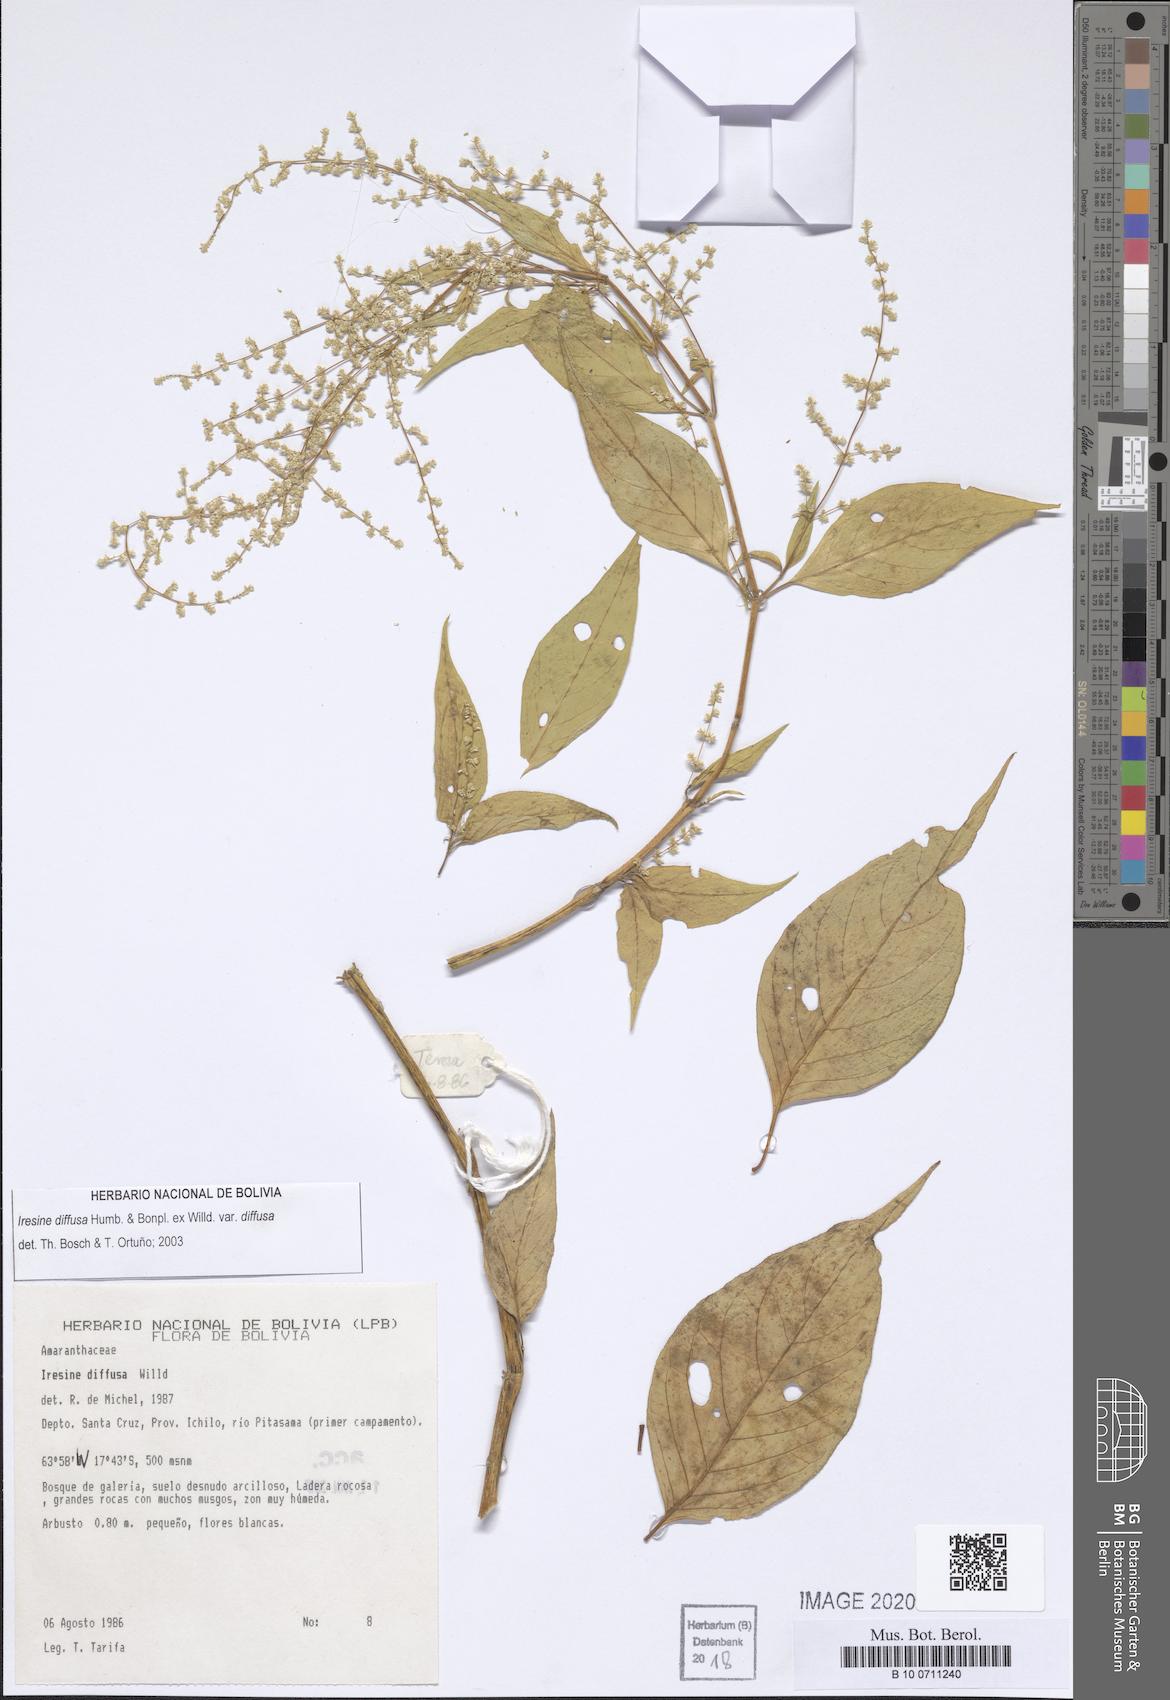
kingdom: Plantae
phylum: Tracheophyta
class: Magnoliopsida
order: Caryophyllales
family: Amaranthaceae
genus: Iresine
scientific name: Iresine diffusa
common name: Juba's-bush
